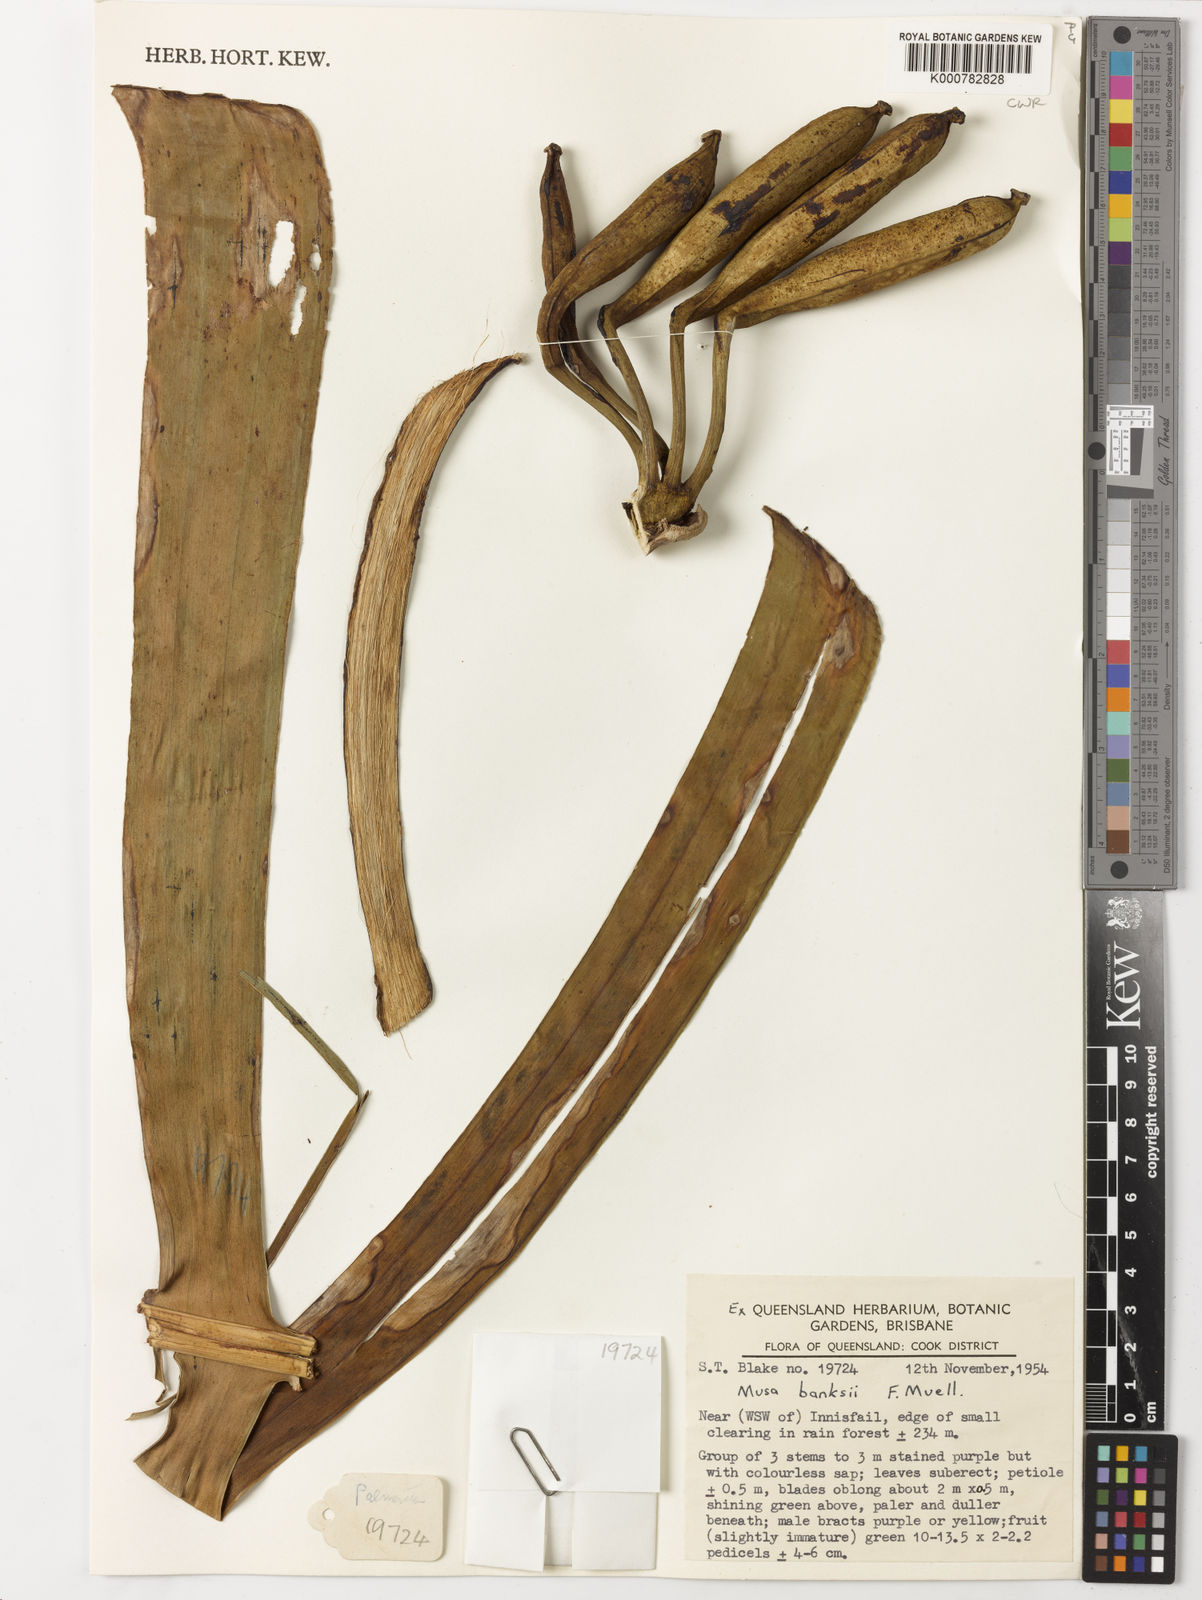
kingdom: Plantae
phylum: Tracheophyta
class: Liliopsida
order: Zingiberales
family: Musaceae
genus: Musa
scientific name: Musa banksii
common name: Maroon-stemmed banana
